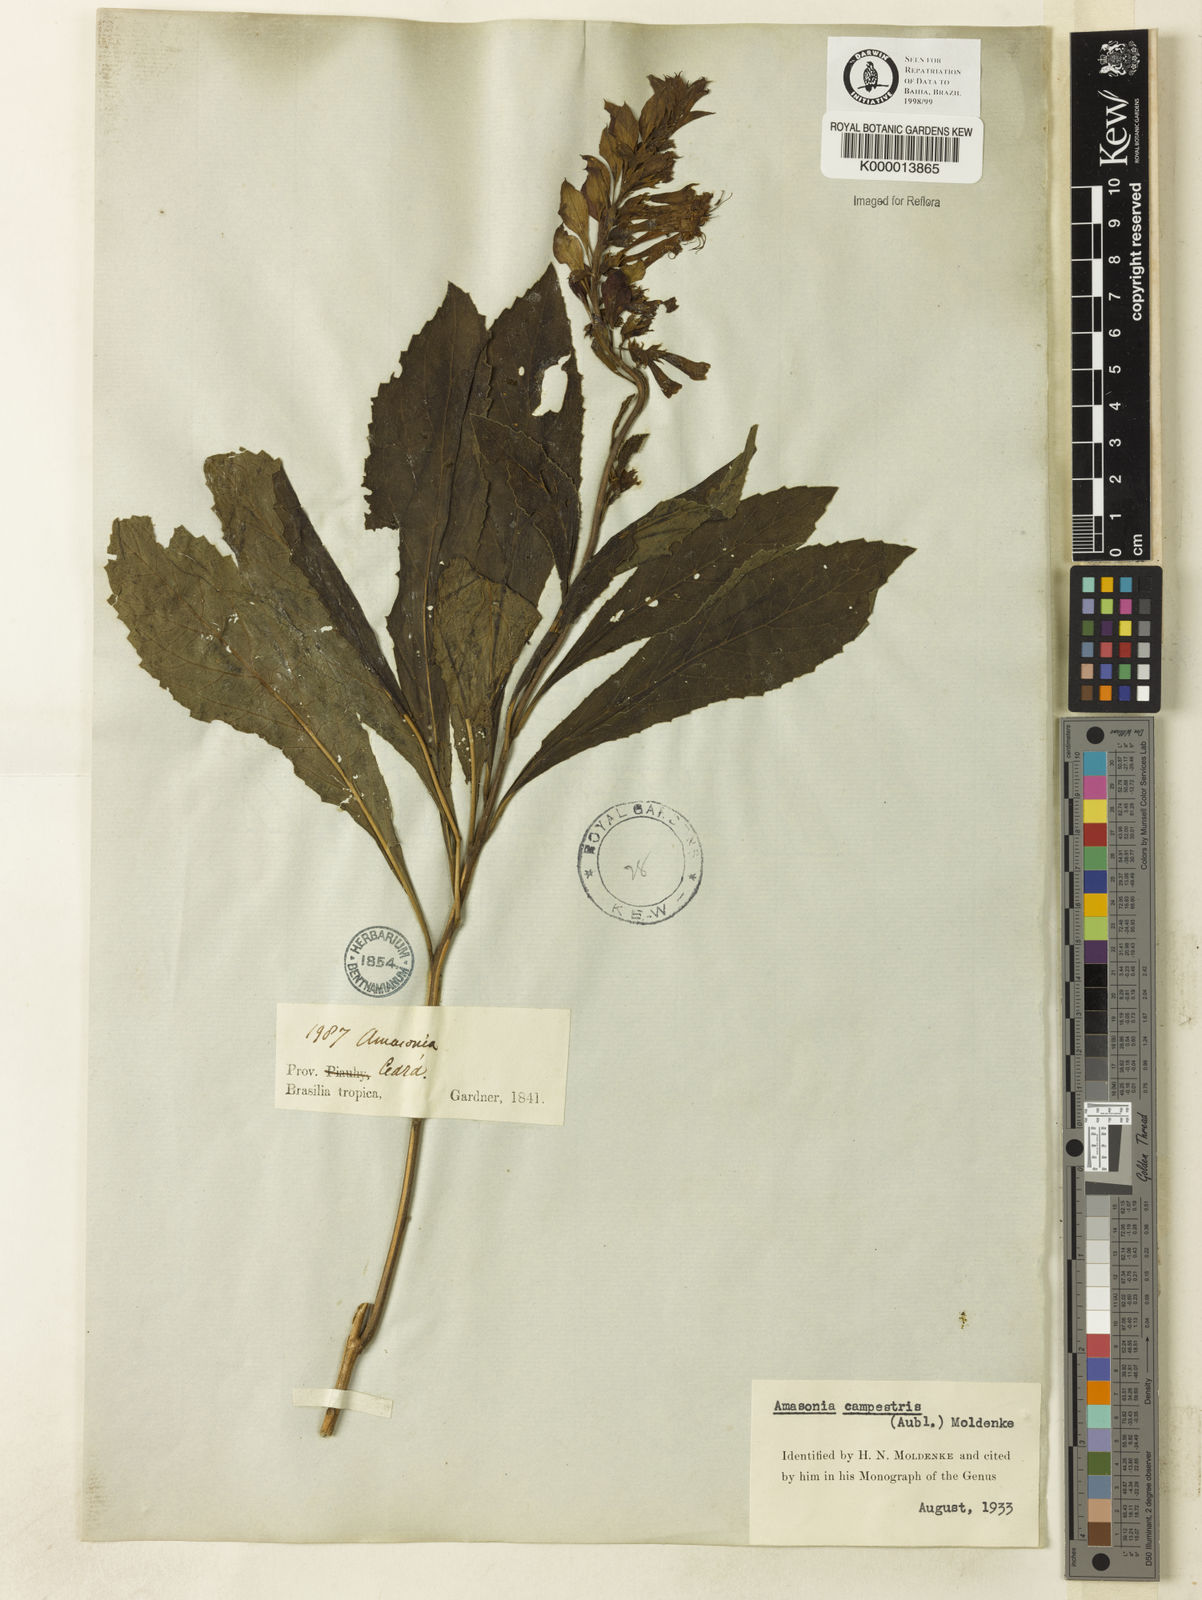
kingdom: Plantae
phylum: Tracheophyta
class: Magnoliopsida
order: Lamiales
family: Lamiaceae
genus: Amasonia
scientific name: Amasonia campestris
